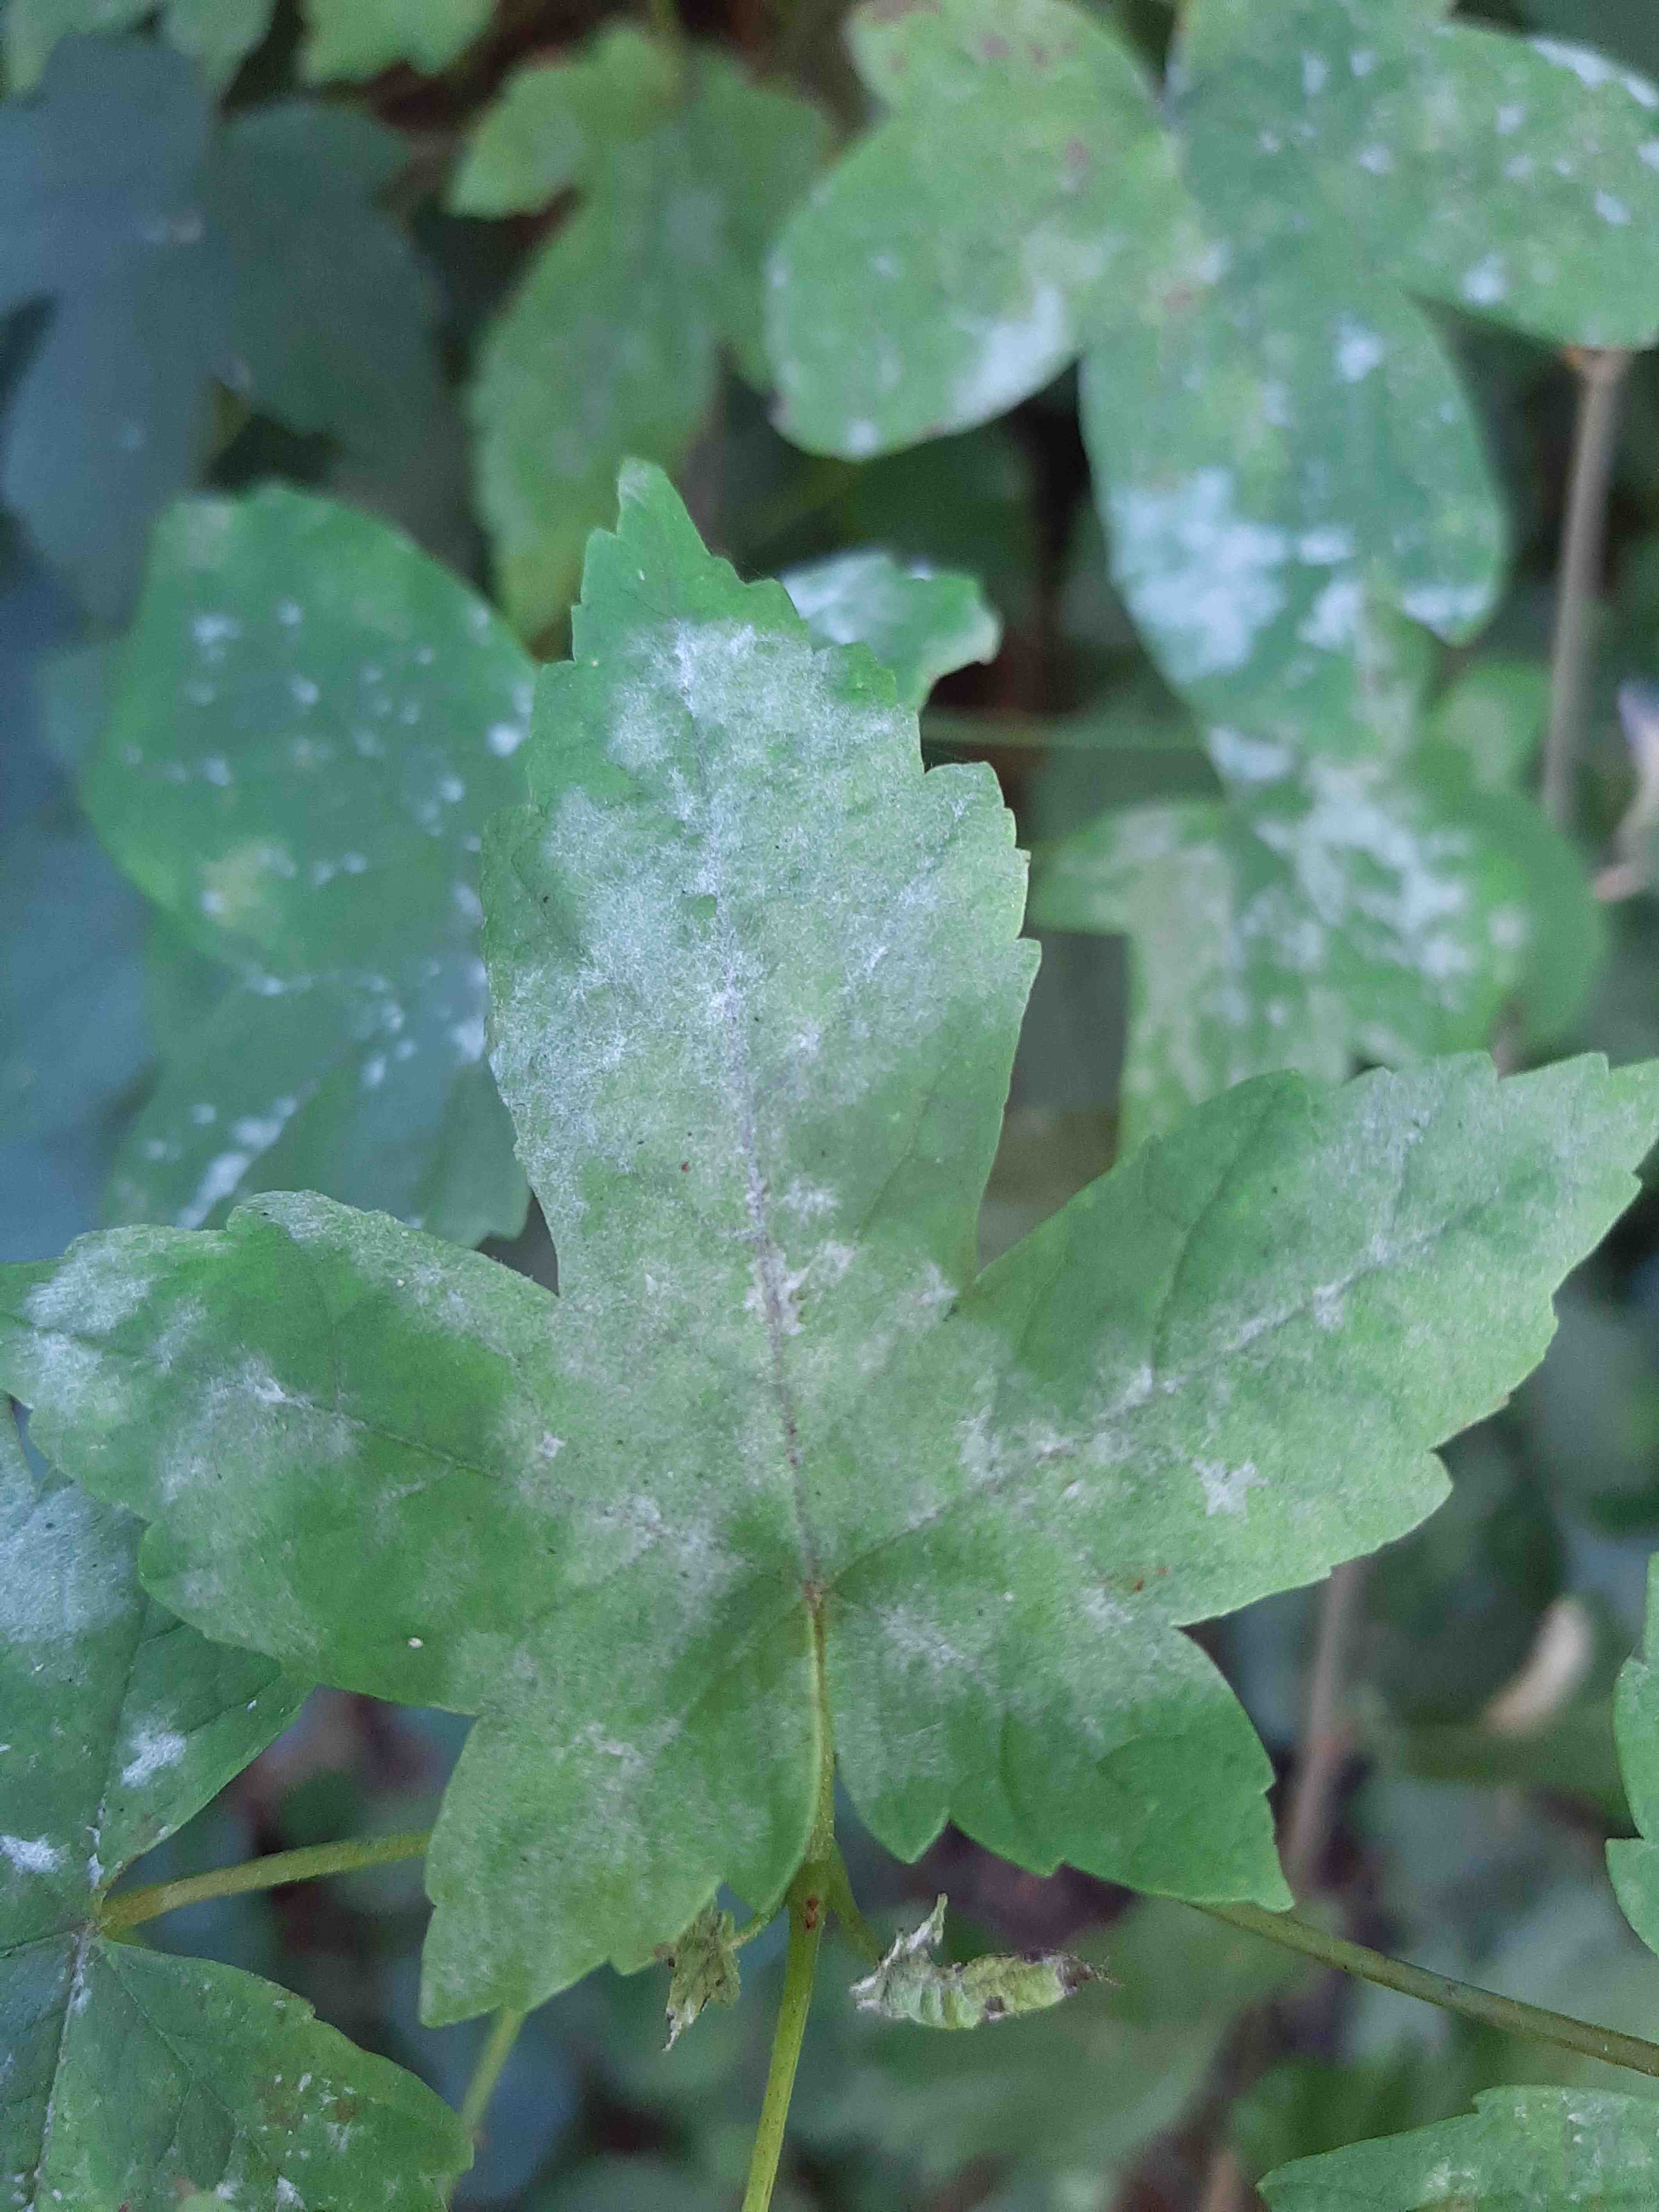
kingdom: Fungi
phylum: Ascomycota
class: Leotiomycetes
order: Helotiales
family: Erysiphaceae
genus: Sawadaea
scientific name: Sawadaea bicornis
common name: Maple mildew
